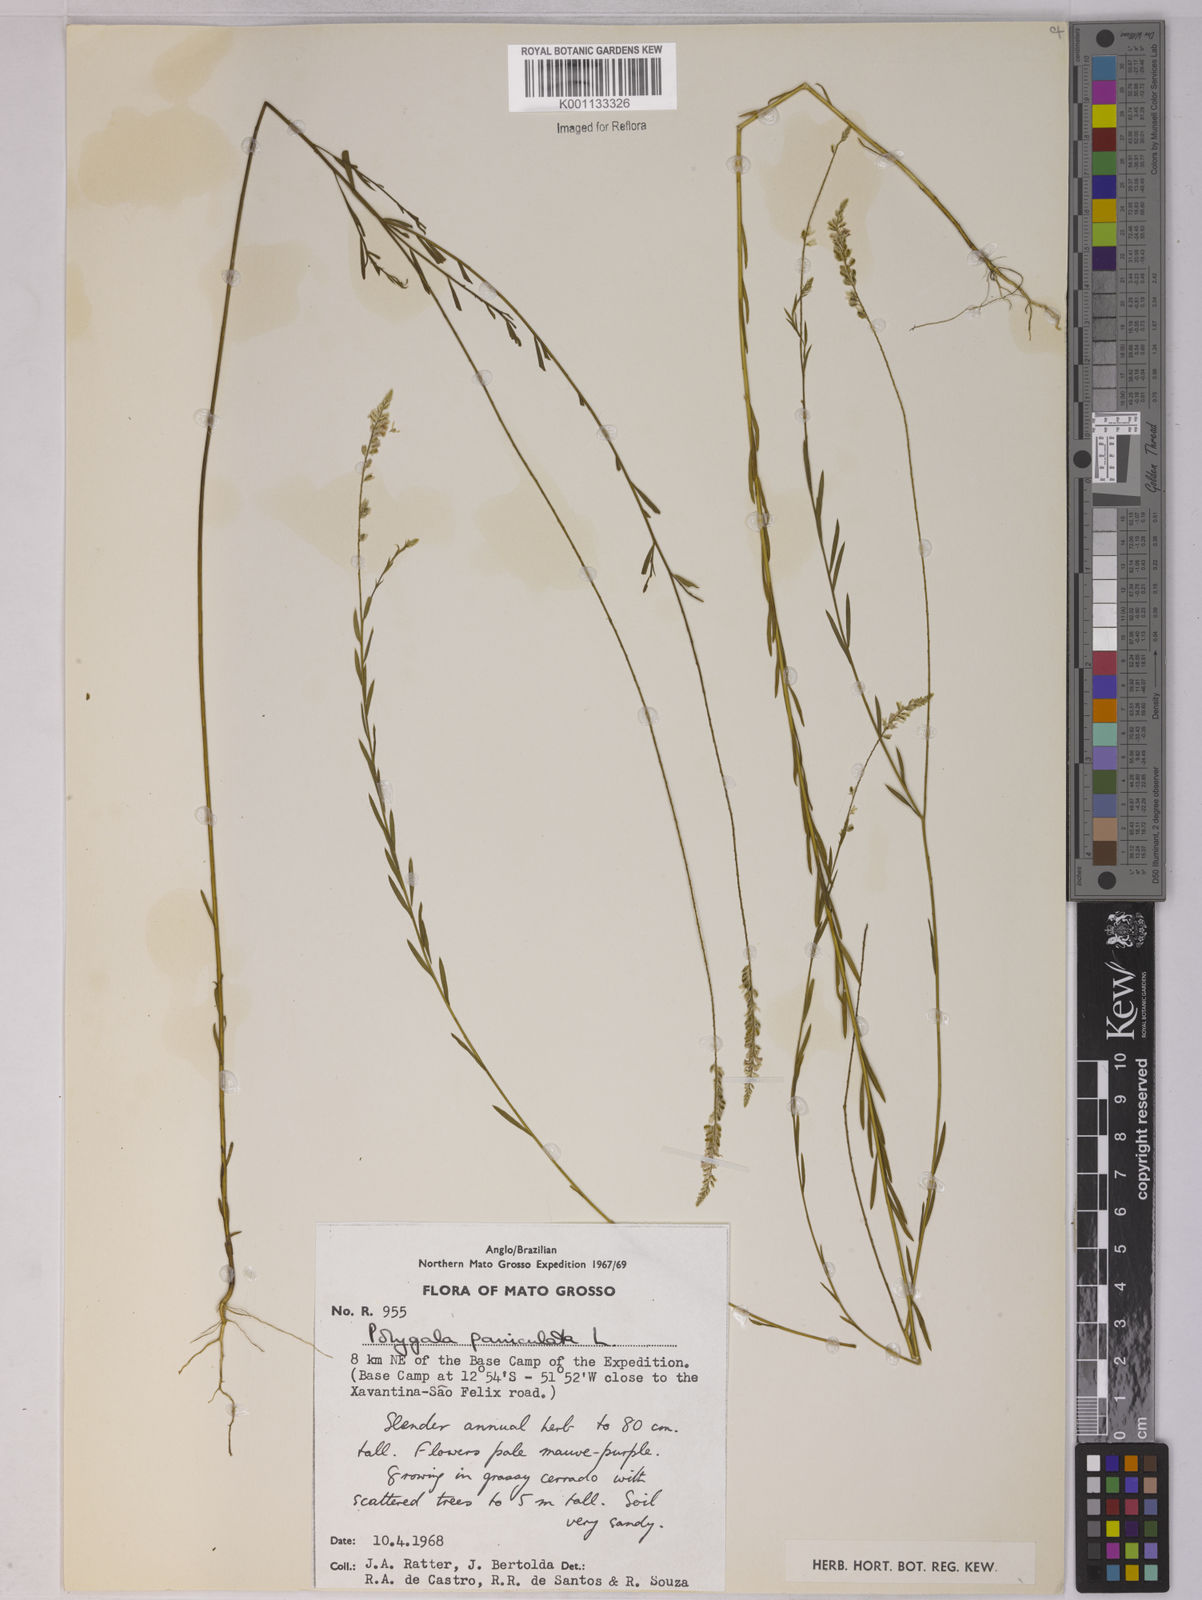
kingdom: Plantae
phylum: Tracheophyta
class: Magnoliopsida
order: Fabales
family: Polygalaceae
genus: Polygala
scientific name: Polygala paniculata
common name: Orosne
